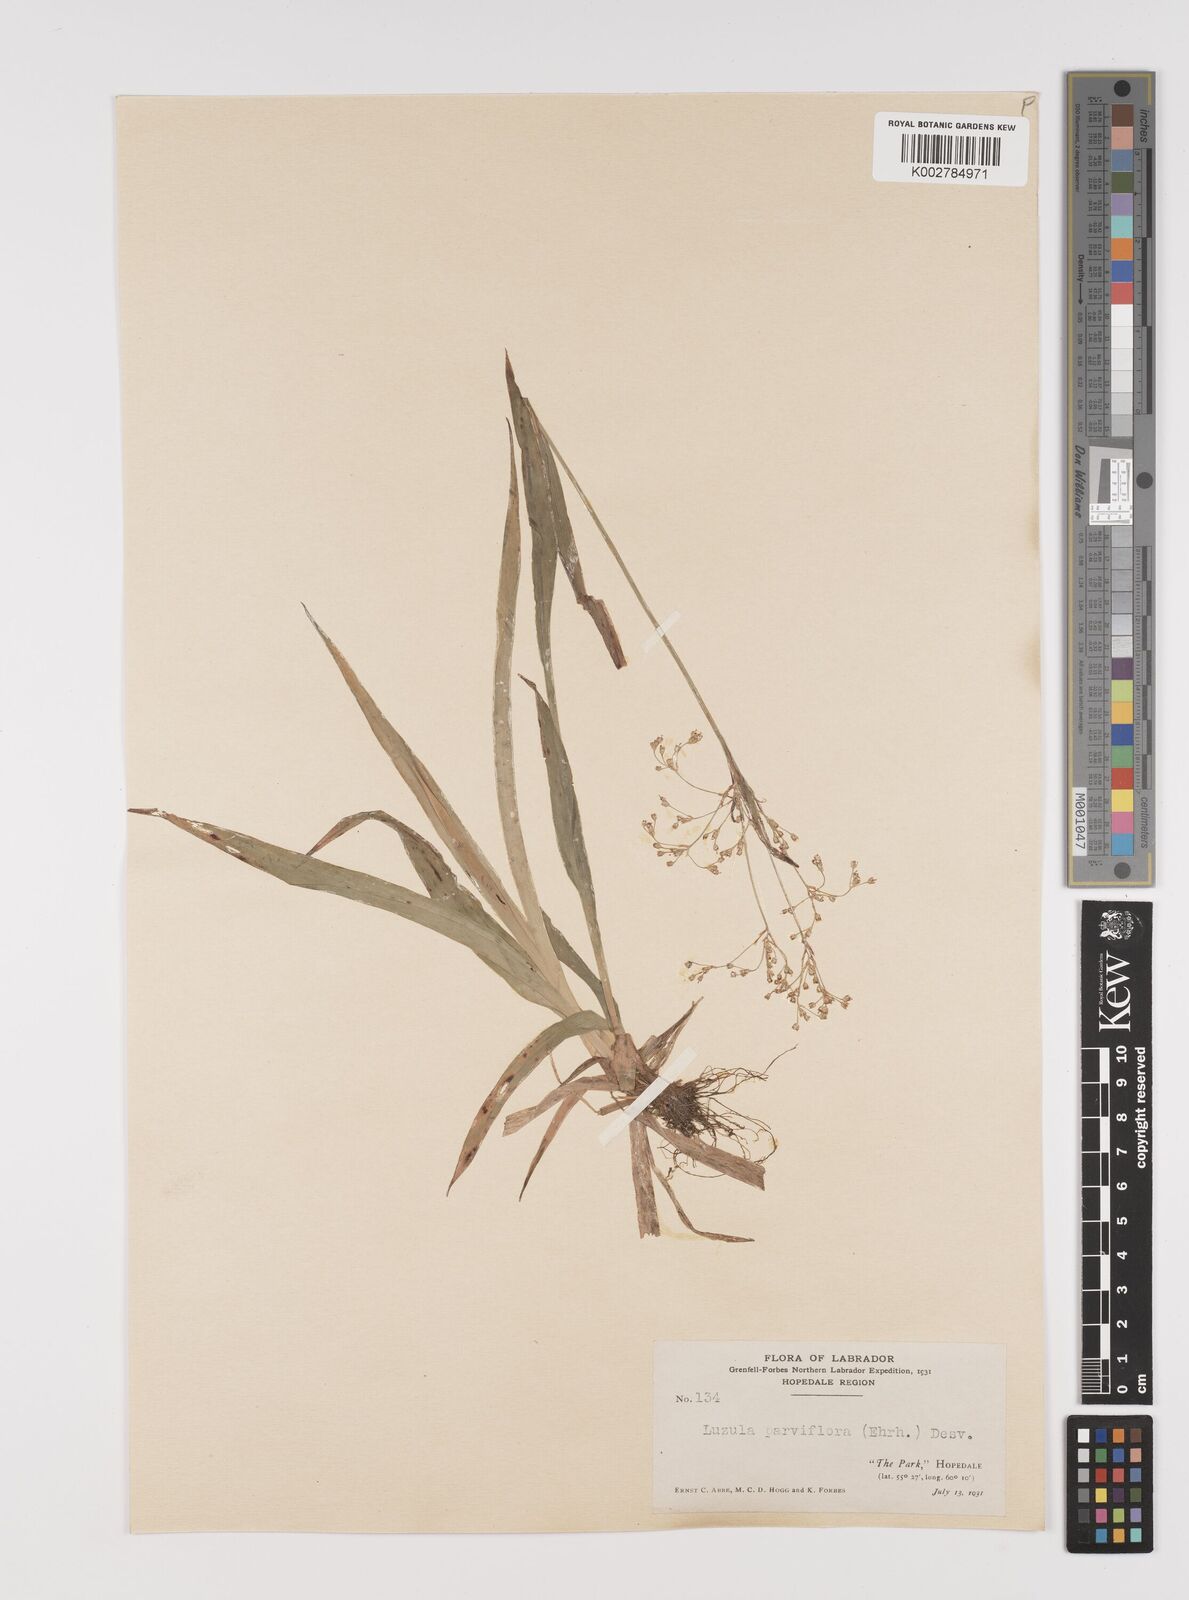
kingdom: Plantae
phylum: Tracheophyta
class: Liliopsida
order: Poales
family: Juncaceae
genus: Luzula
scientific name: Luzula parviflora
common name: Millet woodrush
